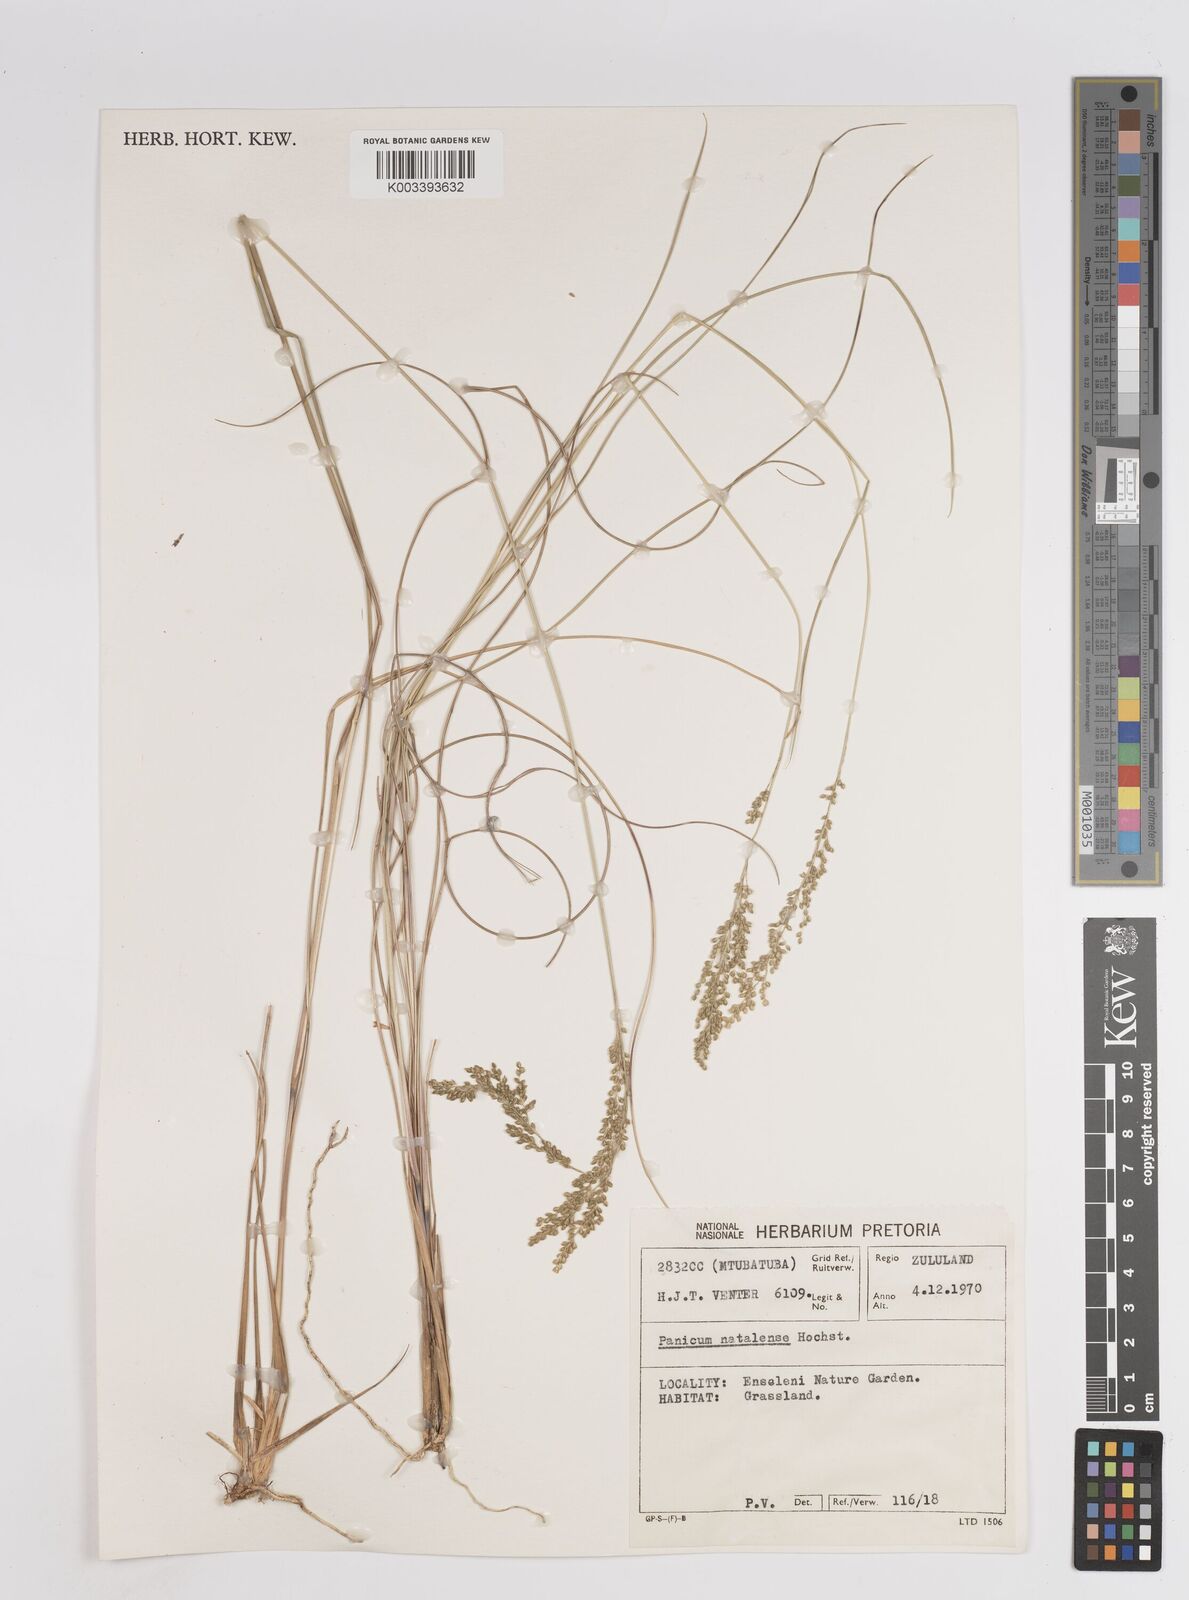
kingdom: Plantae
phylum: Tracheophyta
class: Liliopsida
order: Poales
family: Poaceae
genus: Trichanthecium
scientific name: Trichanthecium natalense
